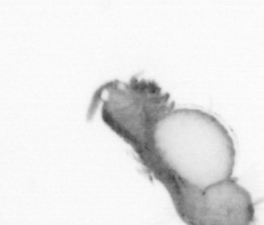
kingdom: Animalia
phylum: Annelida
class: Polychaeta
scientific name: Polychaeta
